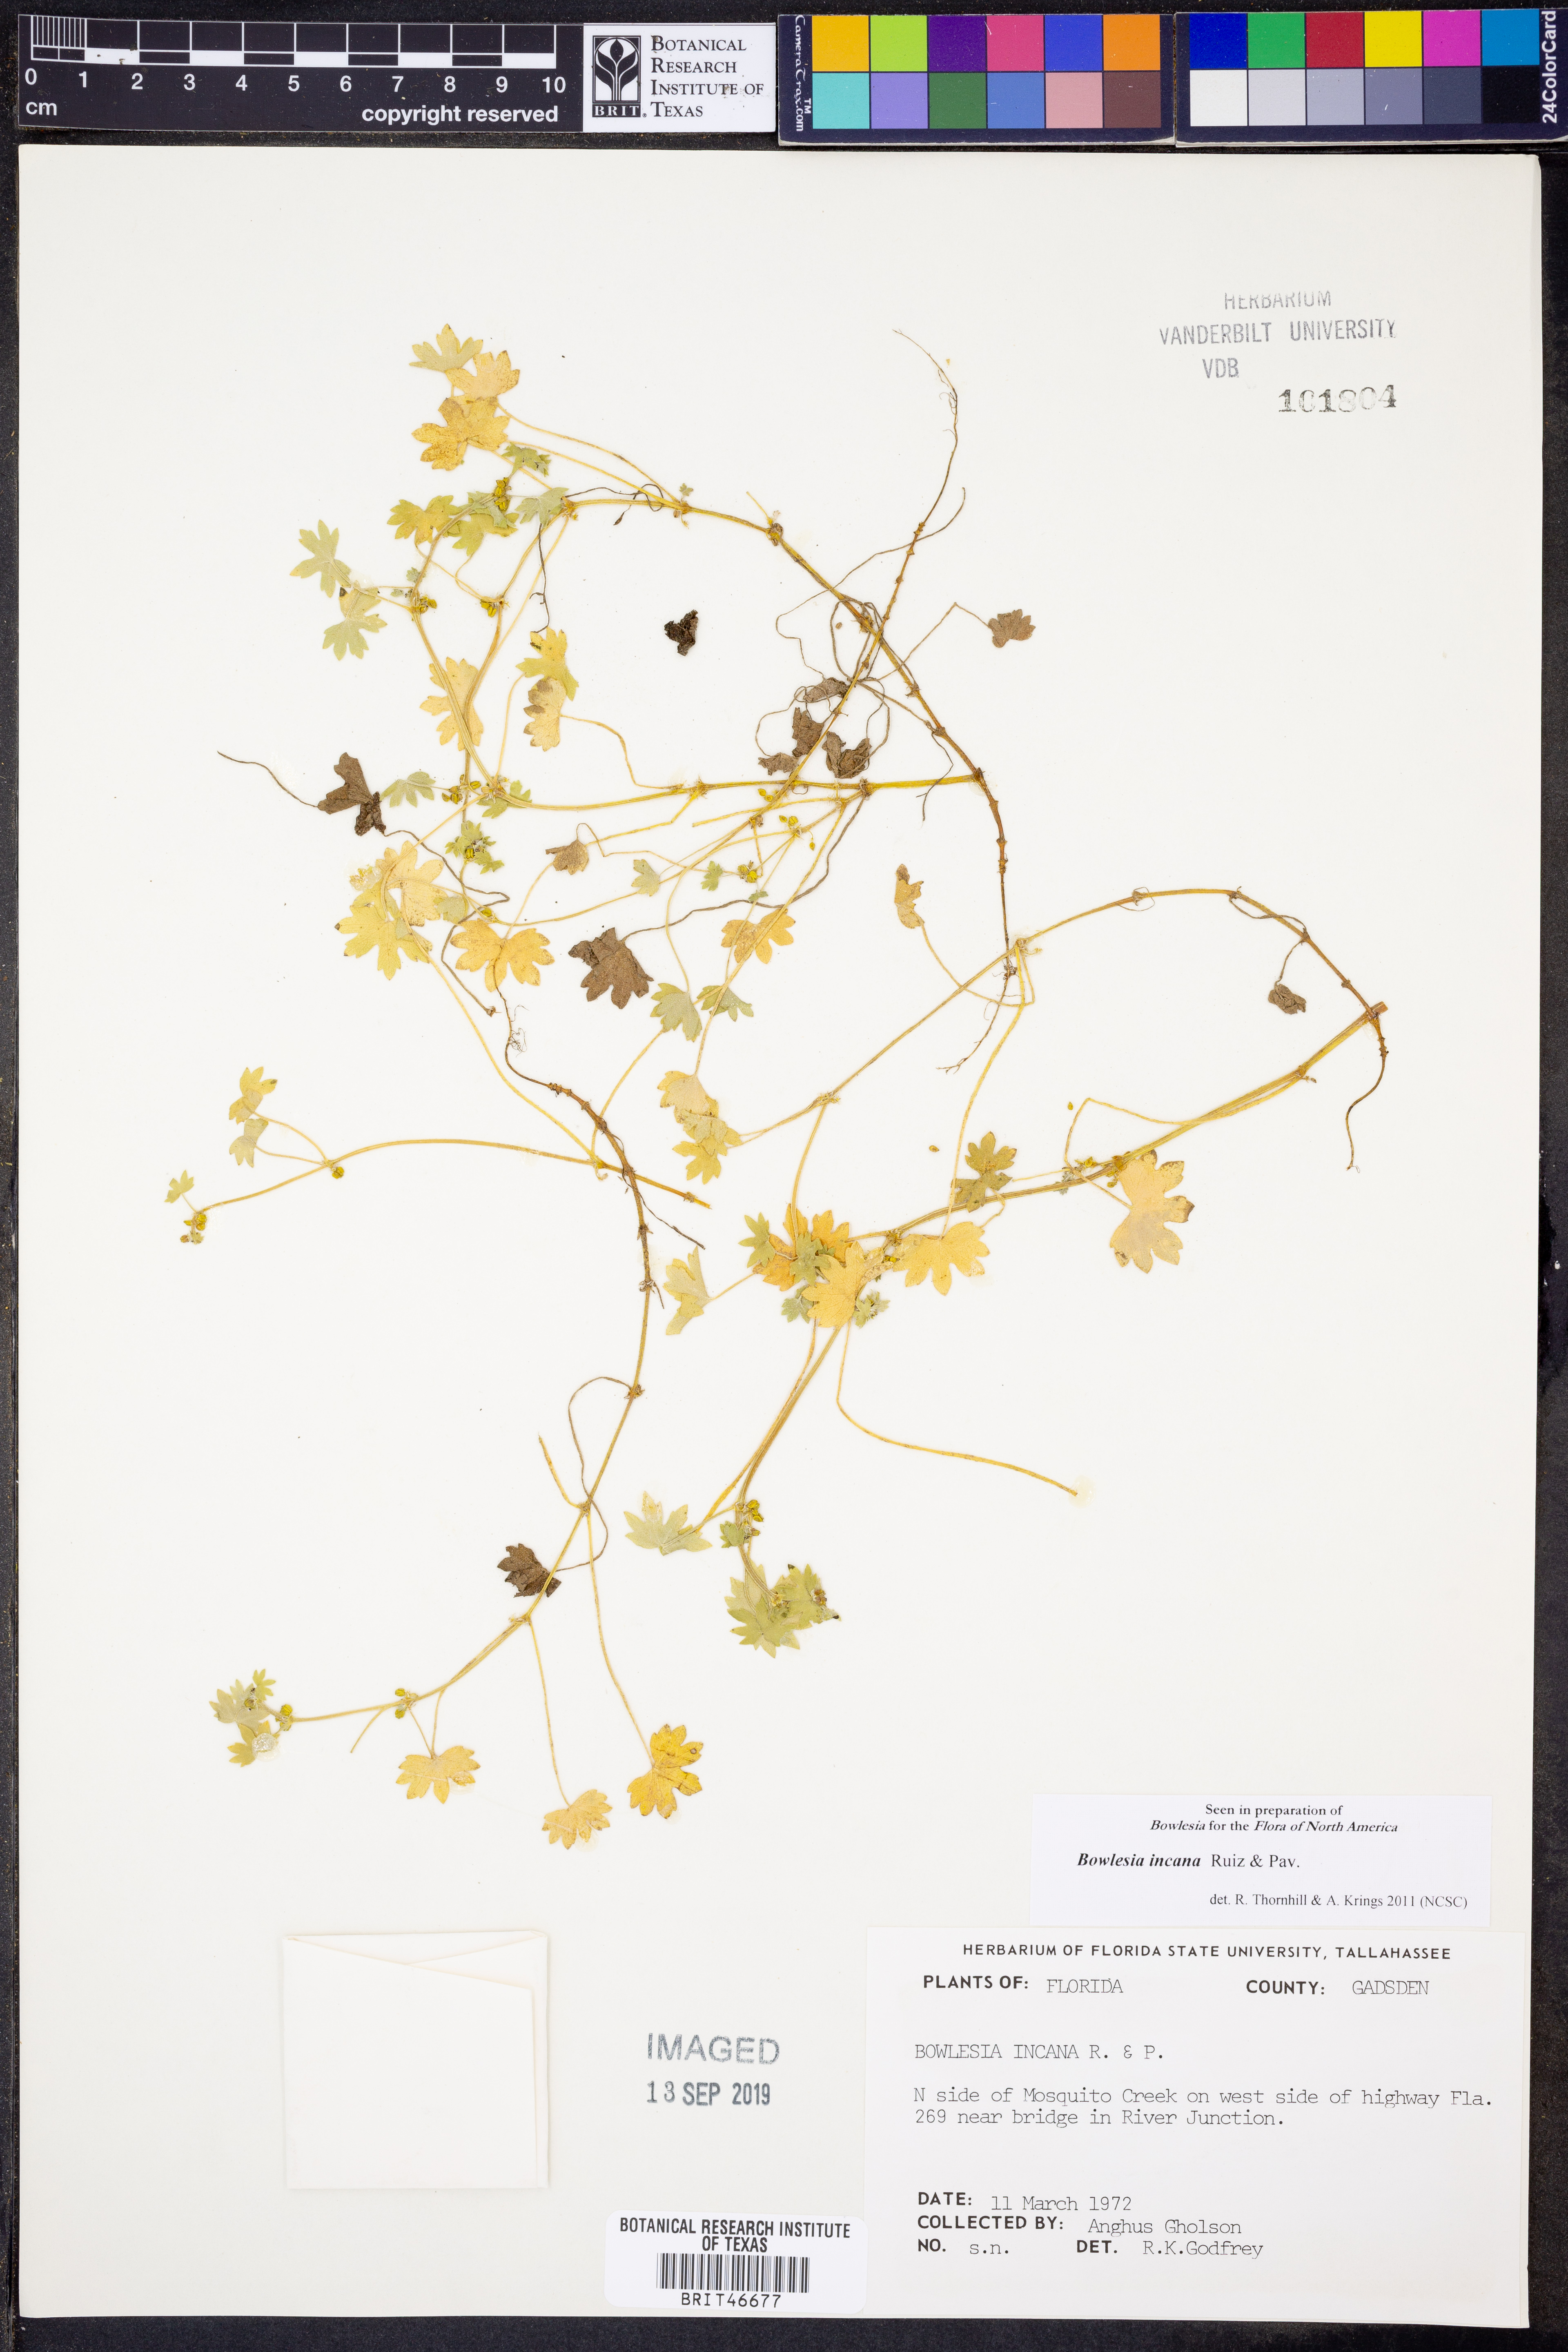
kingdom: Plantae
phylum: Tracheophyta
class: Magnoliopsida
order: Apiales
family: Apiaceae
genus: Bowlesia
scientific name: Bowlesia incana
